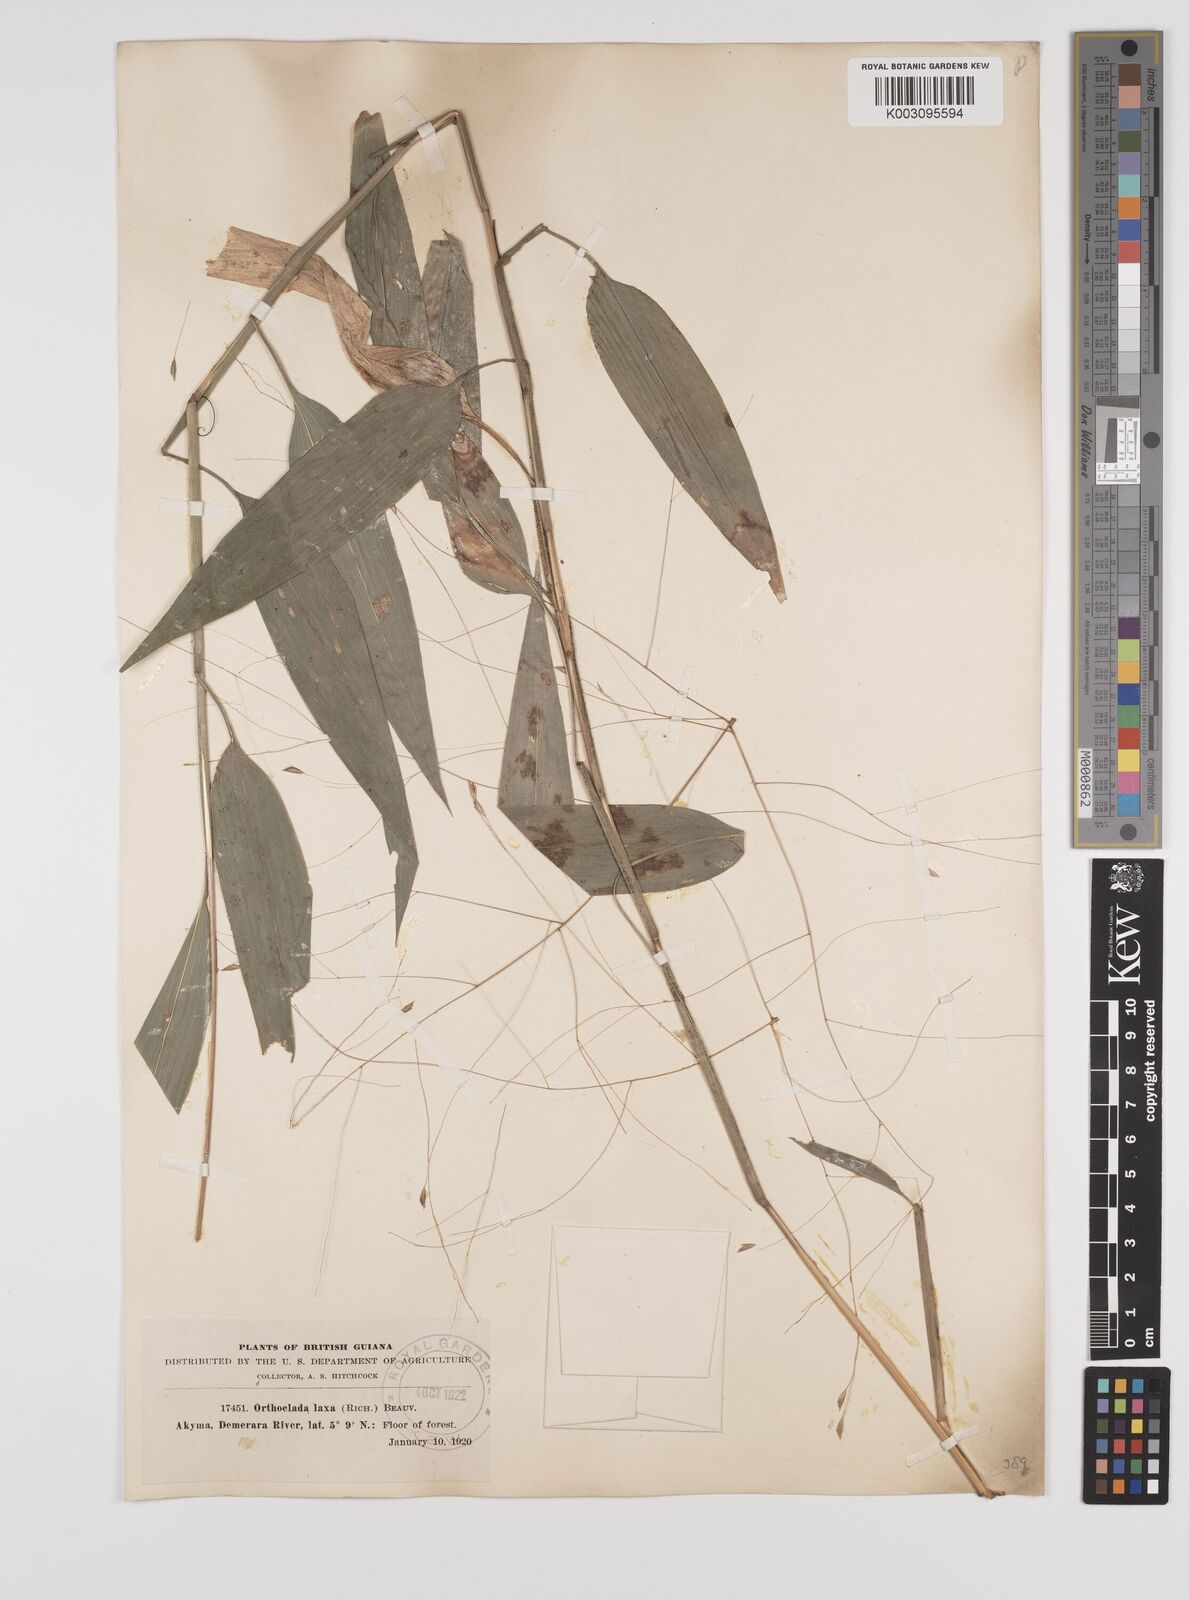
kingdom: Plantae
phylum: Tracheophyta
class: Liliopsida
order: Poales
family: Poaceae
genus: Orthoclada
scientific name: Orthoclada laxa
